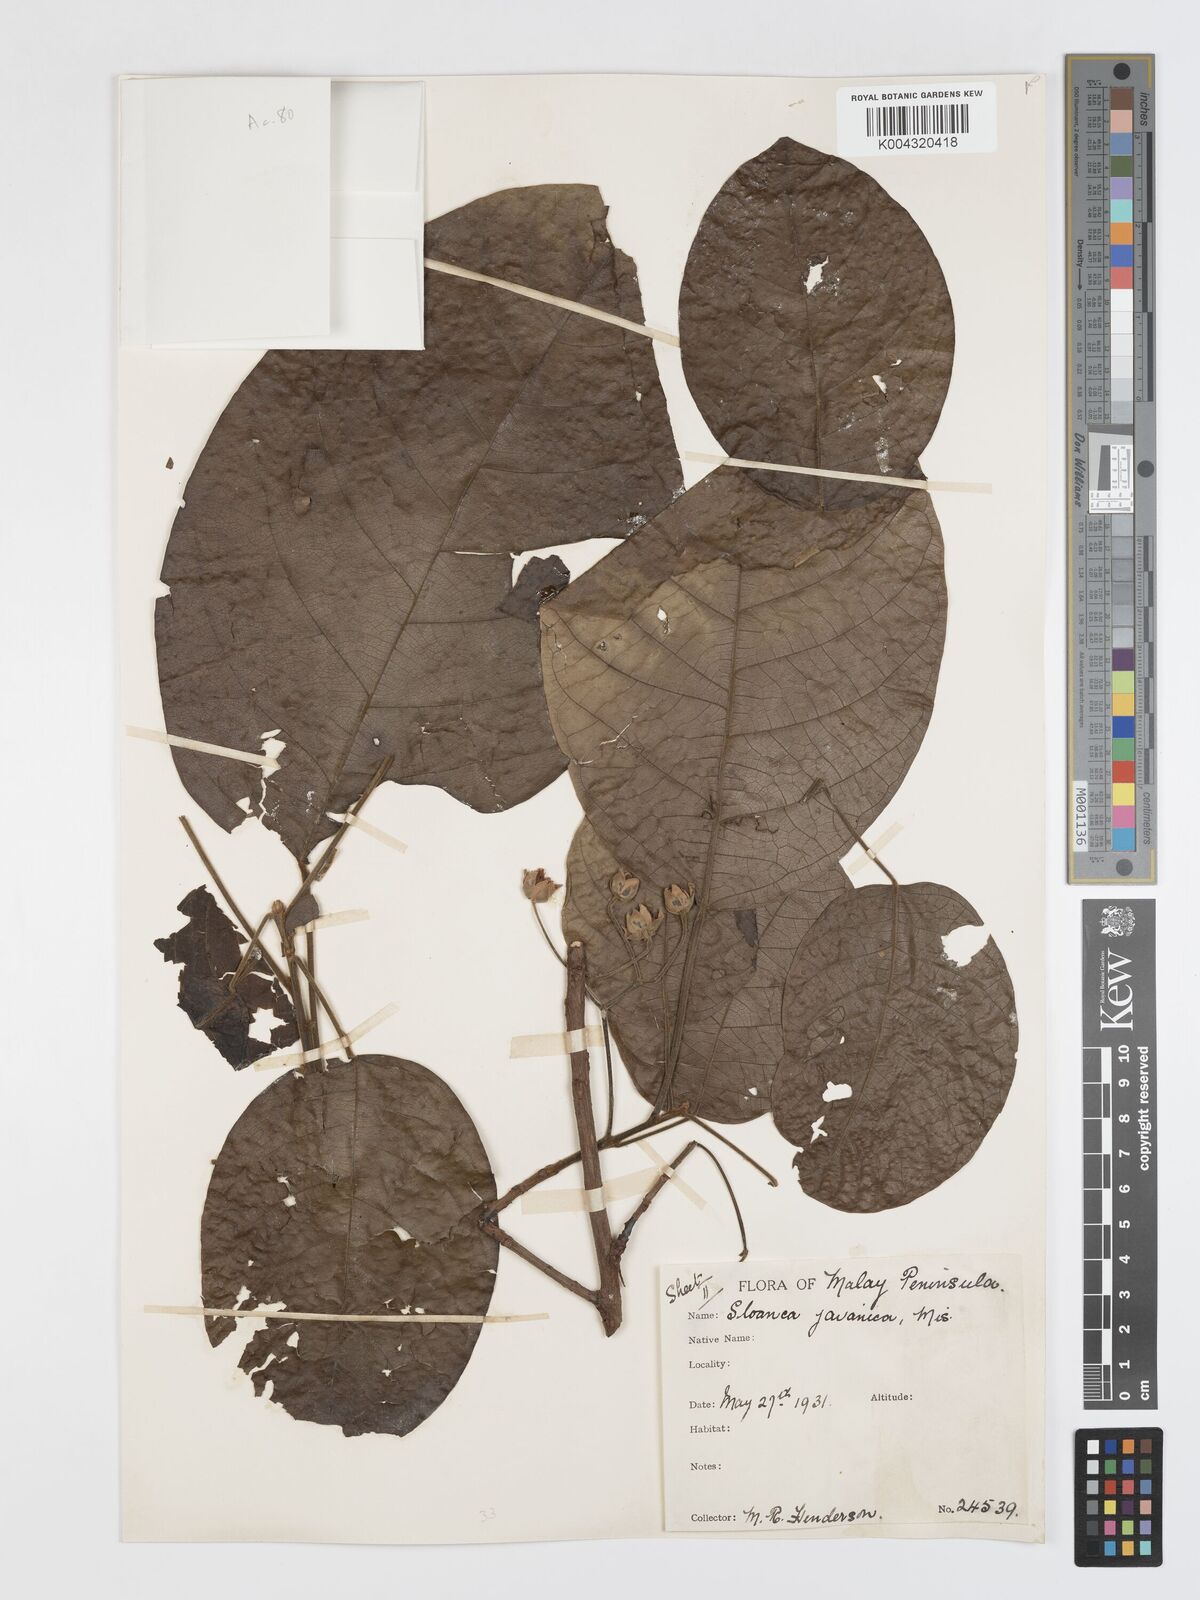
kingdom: Plantae
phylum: Tracheophyta
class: Magnoliopsida
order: Oxalidales
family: Elaeocarpaceae
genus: Sloanea
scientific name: Sloanea javanica
